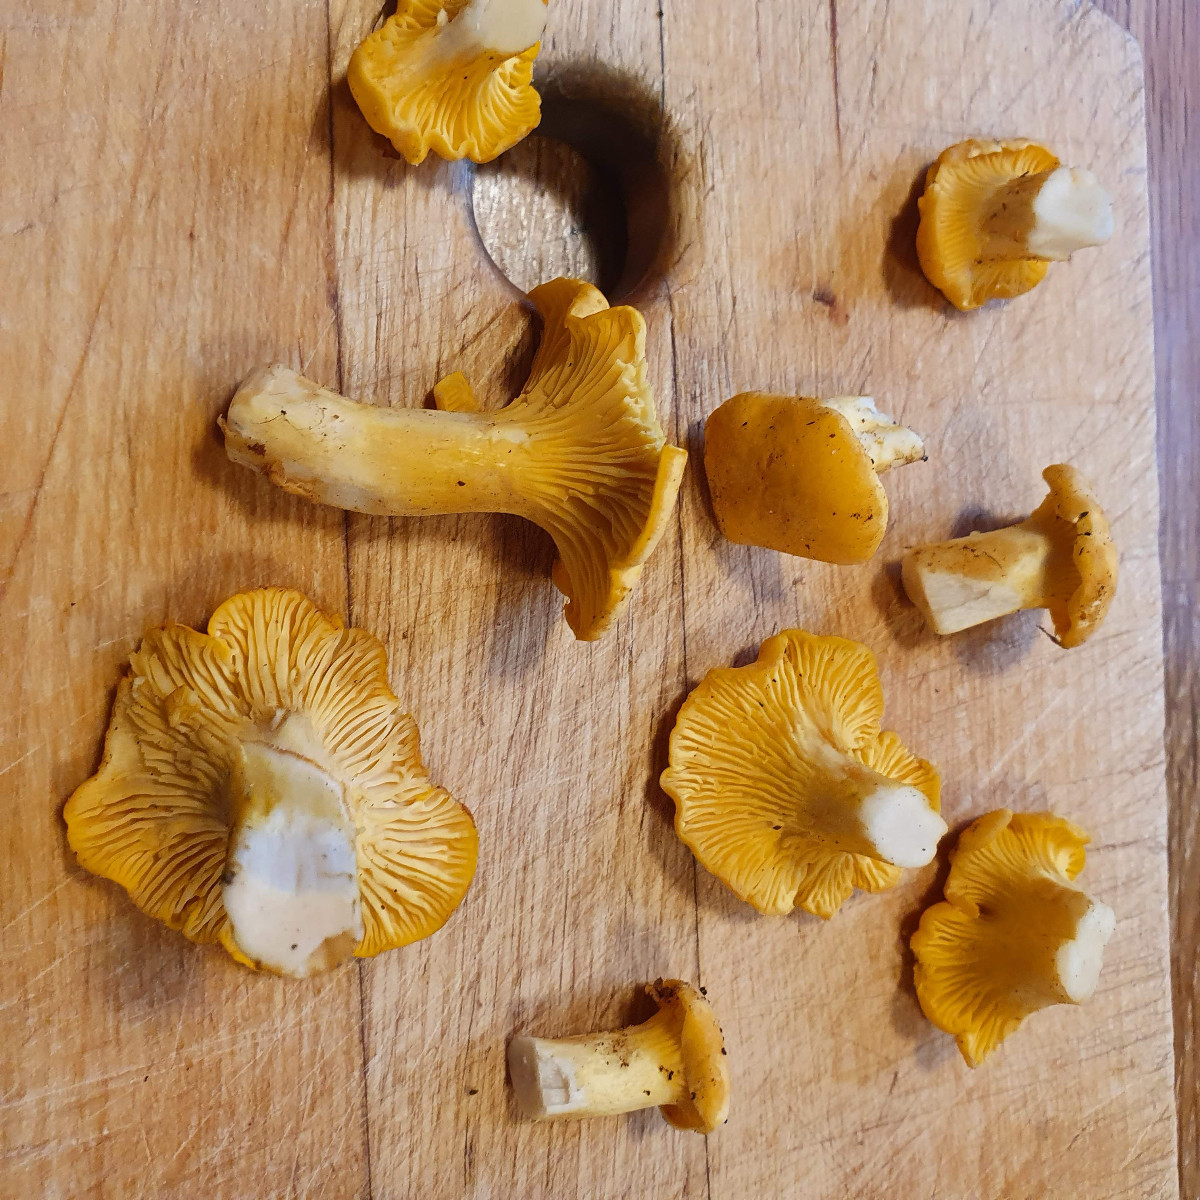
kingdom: Fungi
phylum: Basidiomycota
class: Agaricomycetes
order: Cantharellales
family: Hydnaceae
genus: Cantharellus
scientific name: Cantharellus cibarius
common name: almindelig kantarel
